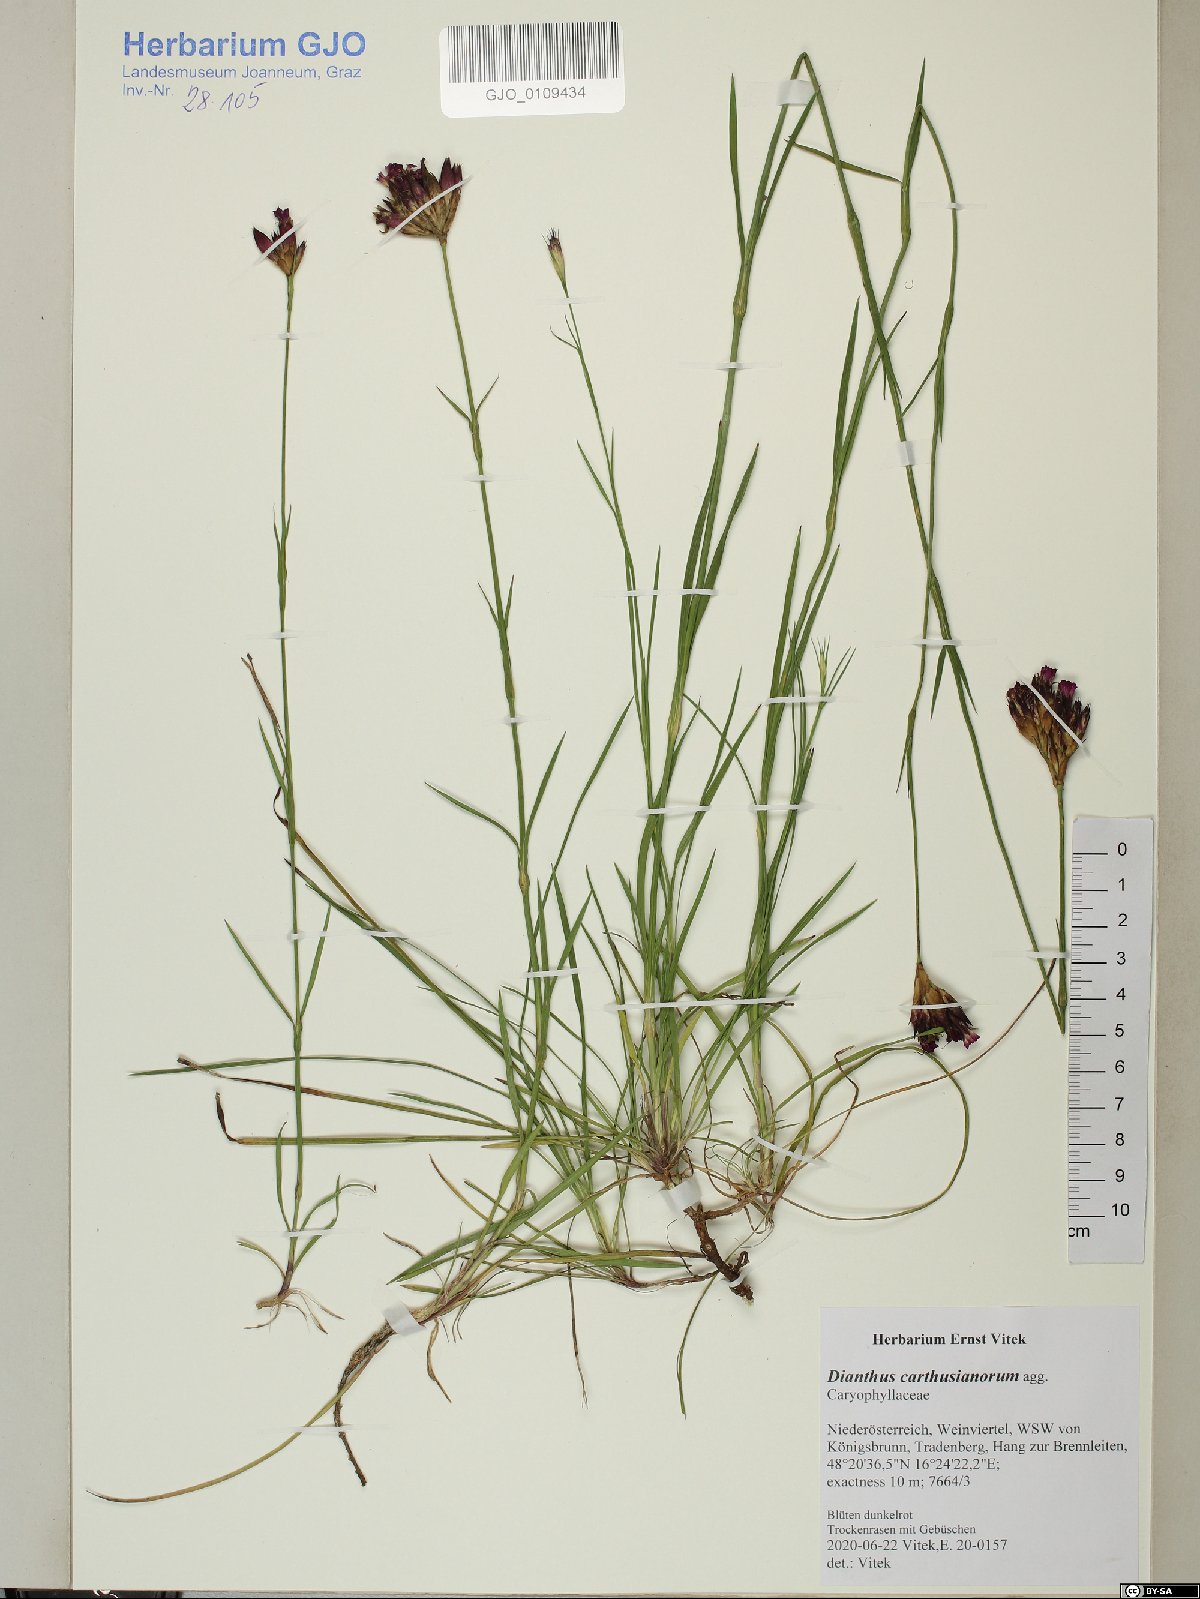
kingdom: Plantae
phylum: Tracheophyta
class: Magnoliopsida
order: Caryophyllales
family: Caryophyllaceae
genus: Dianthus
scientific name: Dianthus carthusianorum
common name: Carthusian pink
